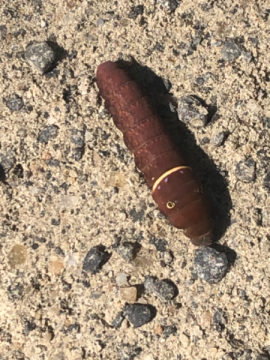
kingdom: Animalia
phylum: Arthropoda
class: Insecta
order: Lepidoptera
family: Papilionidae
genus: Pterourus
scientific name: Pterourus
